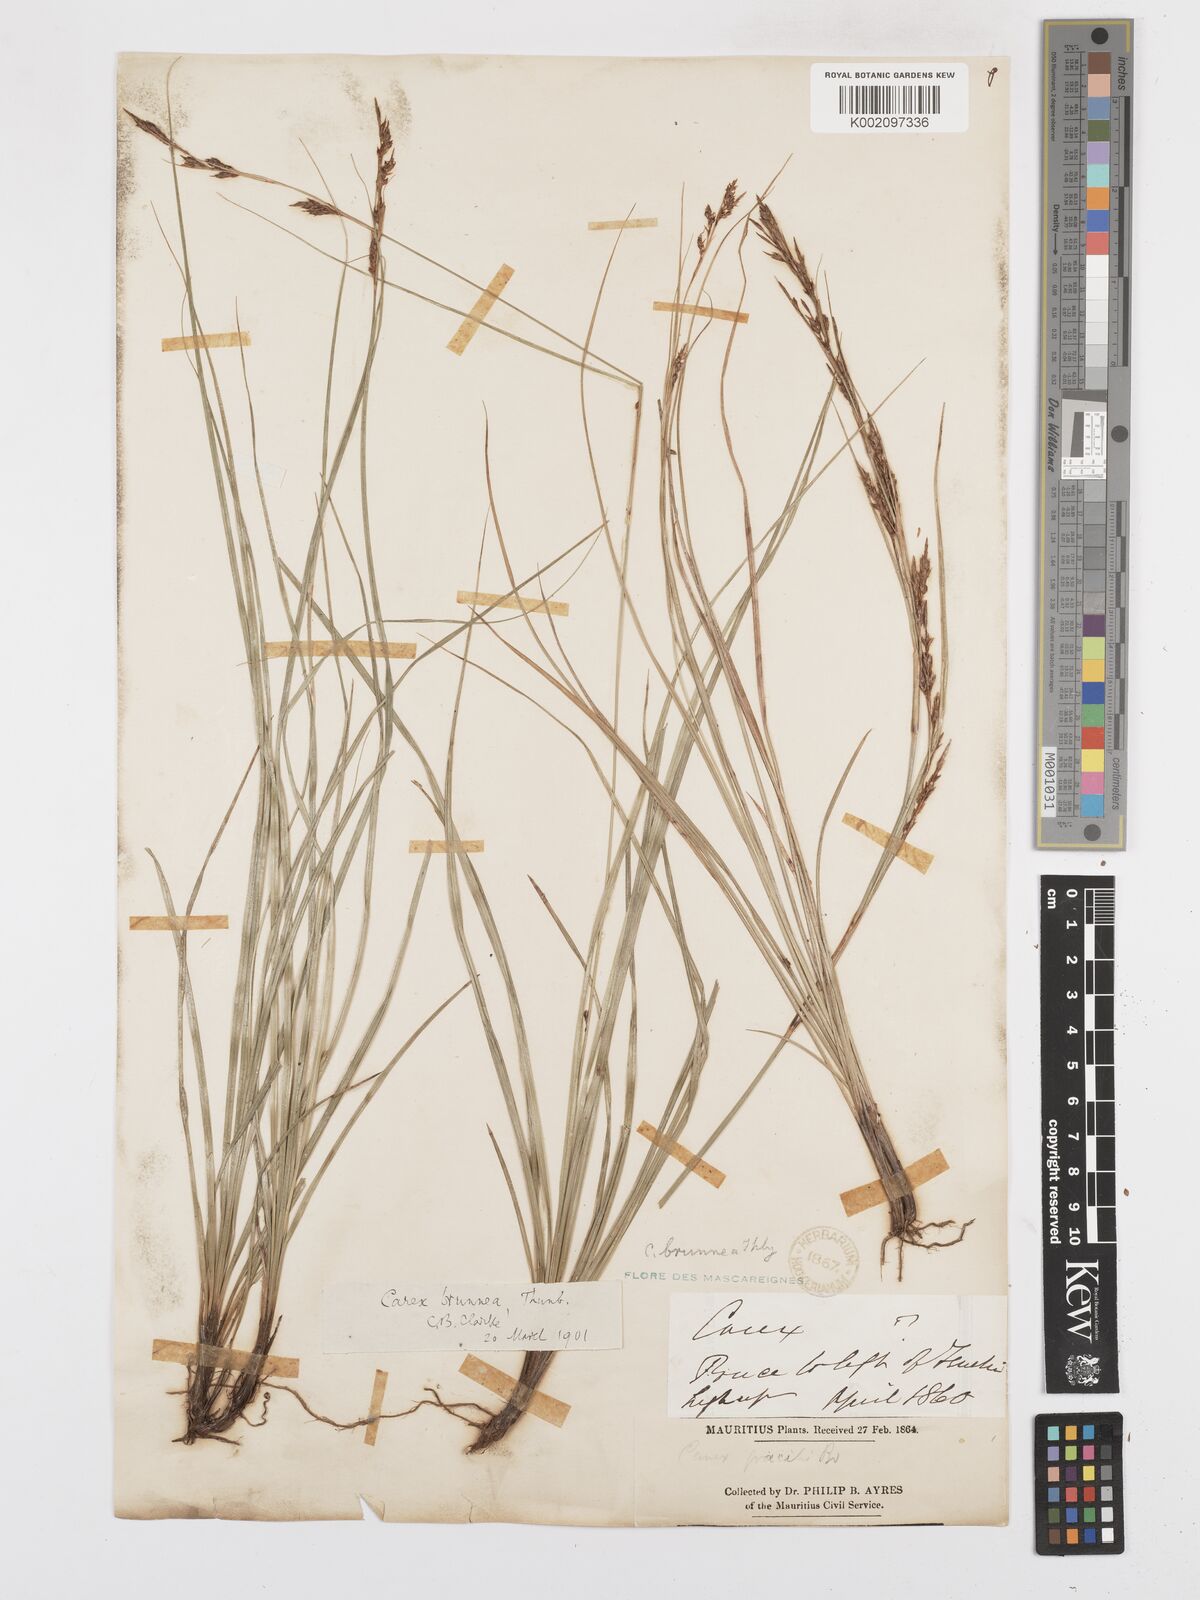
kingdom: Plantae
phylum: Tracheophyta
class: Liliopsida
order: Poales
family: Cyperaceae
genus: Carex
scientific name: Carex brunnea
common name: Greater brown sedge
